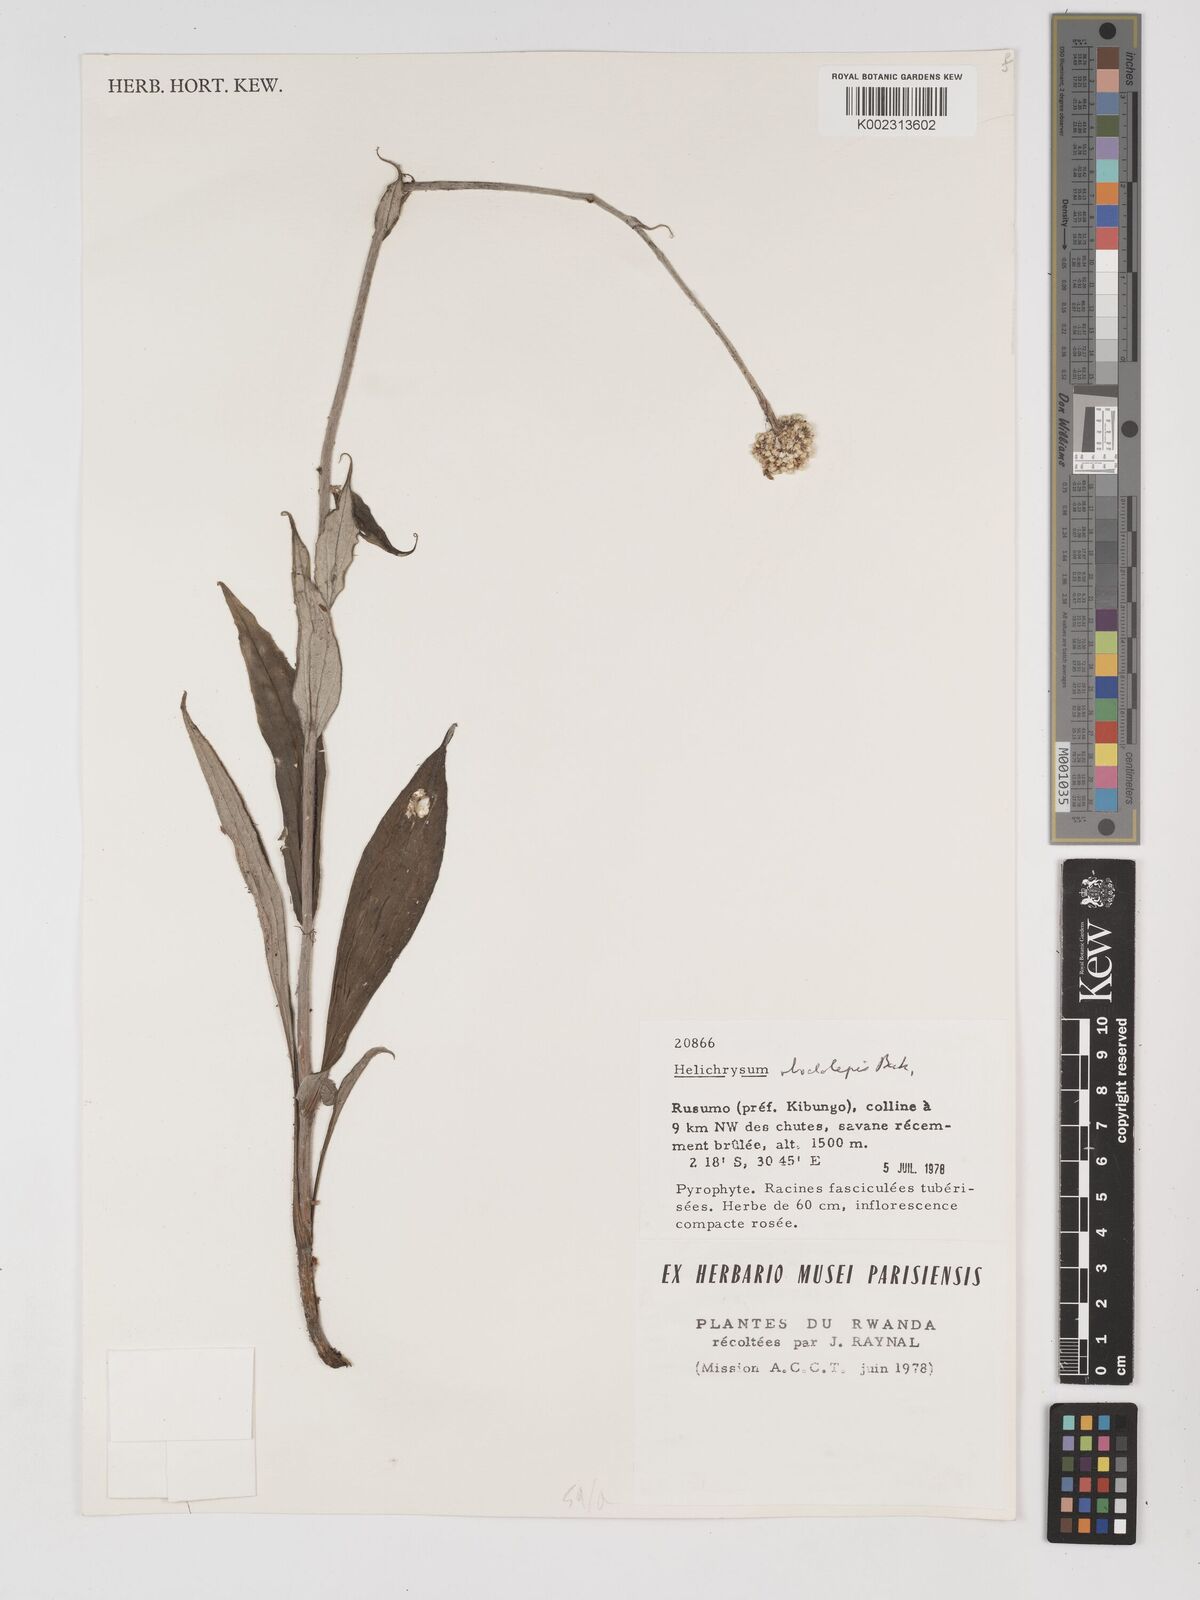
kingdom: Plantae
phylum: Tracheophyta
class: Magnoliopsida
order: Asterales
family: Asteraceae
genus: Helichrysum
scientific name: Helichrysum nudifolium
